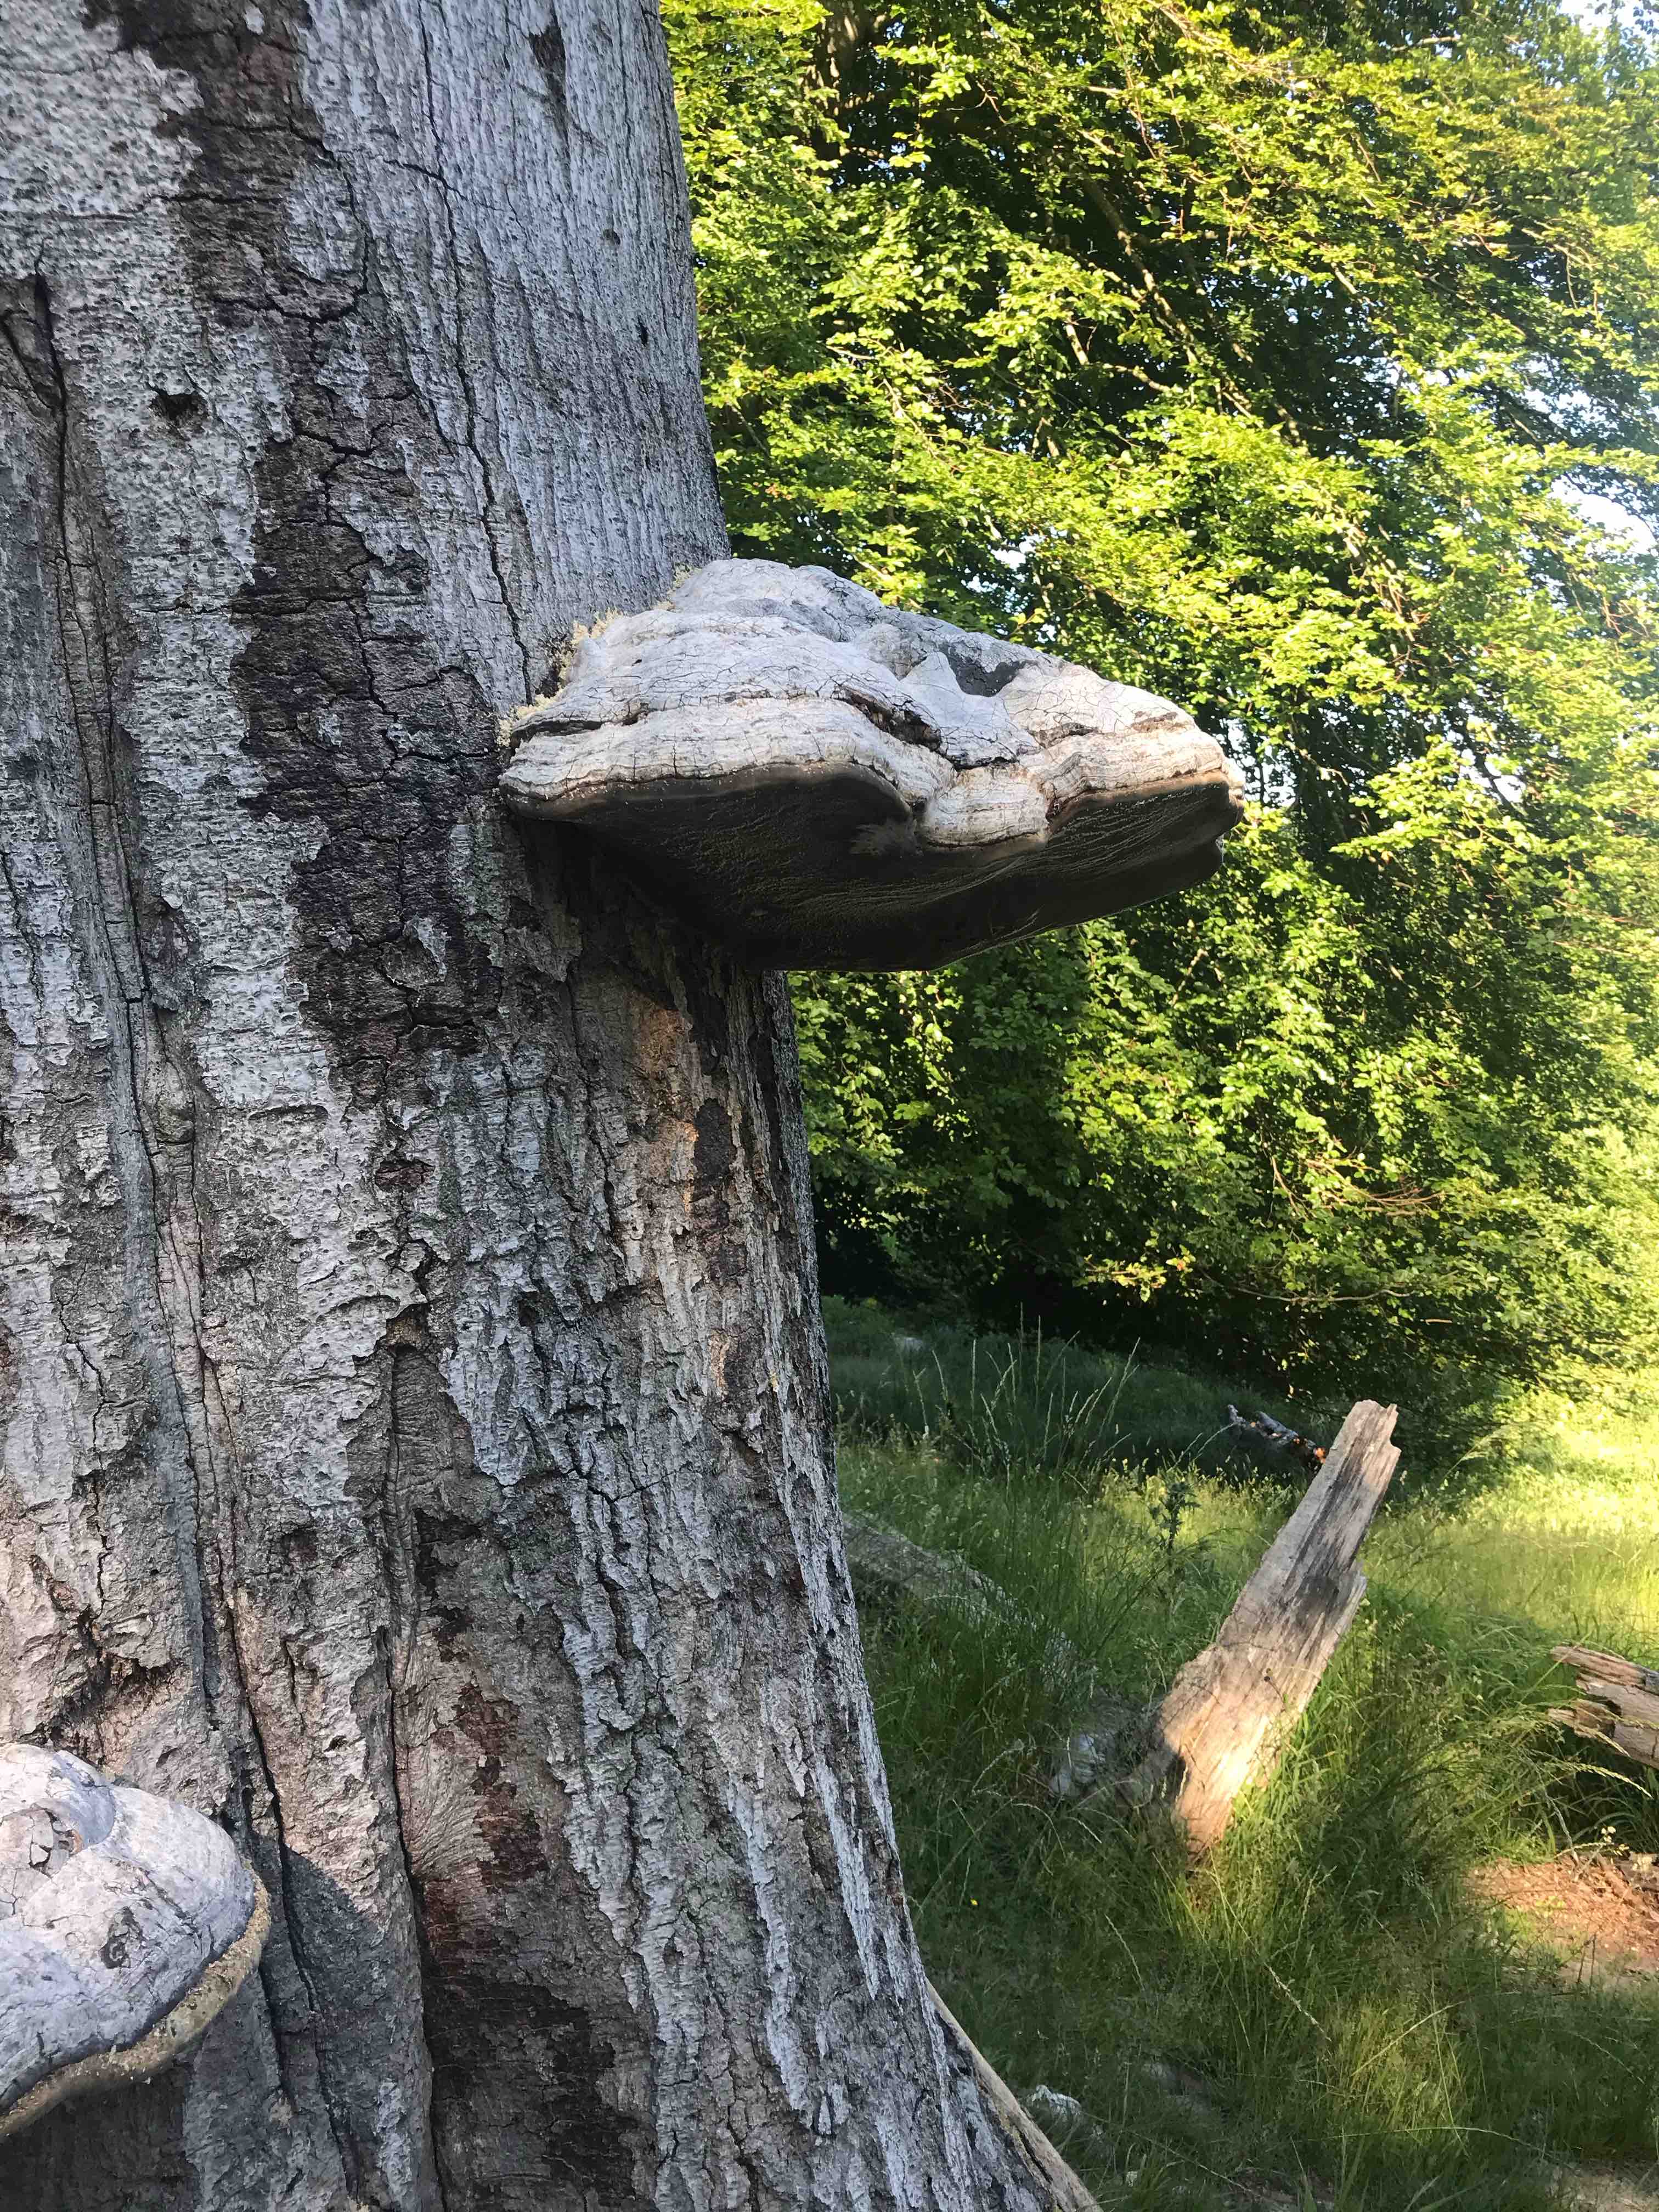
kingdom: Fungi
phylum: Basidiomycota
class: Agaricomycetes
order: Polyporales
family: Polyporaceae
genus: Fomes
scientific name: Fomes fomentarius
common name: tøndersvamp
